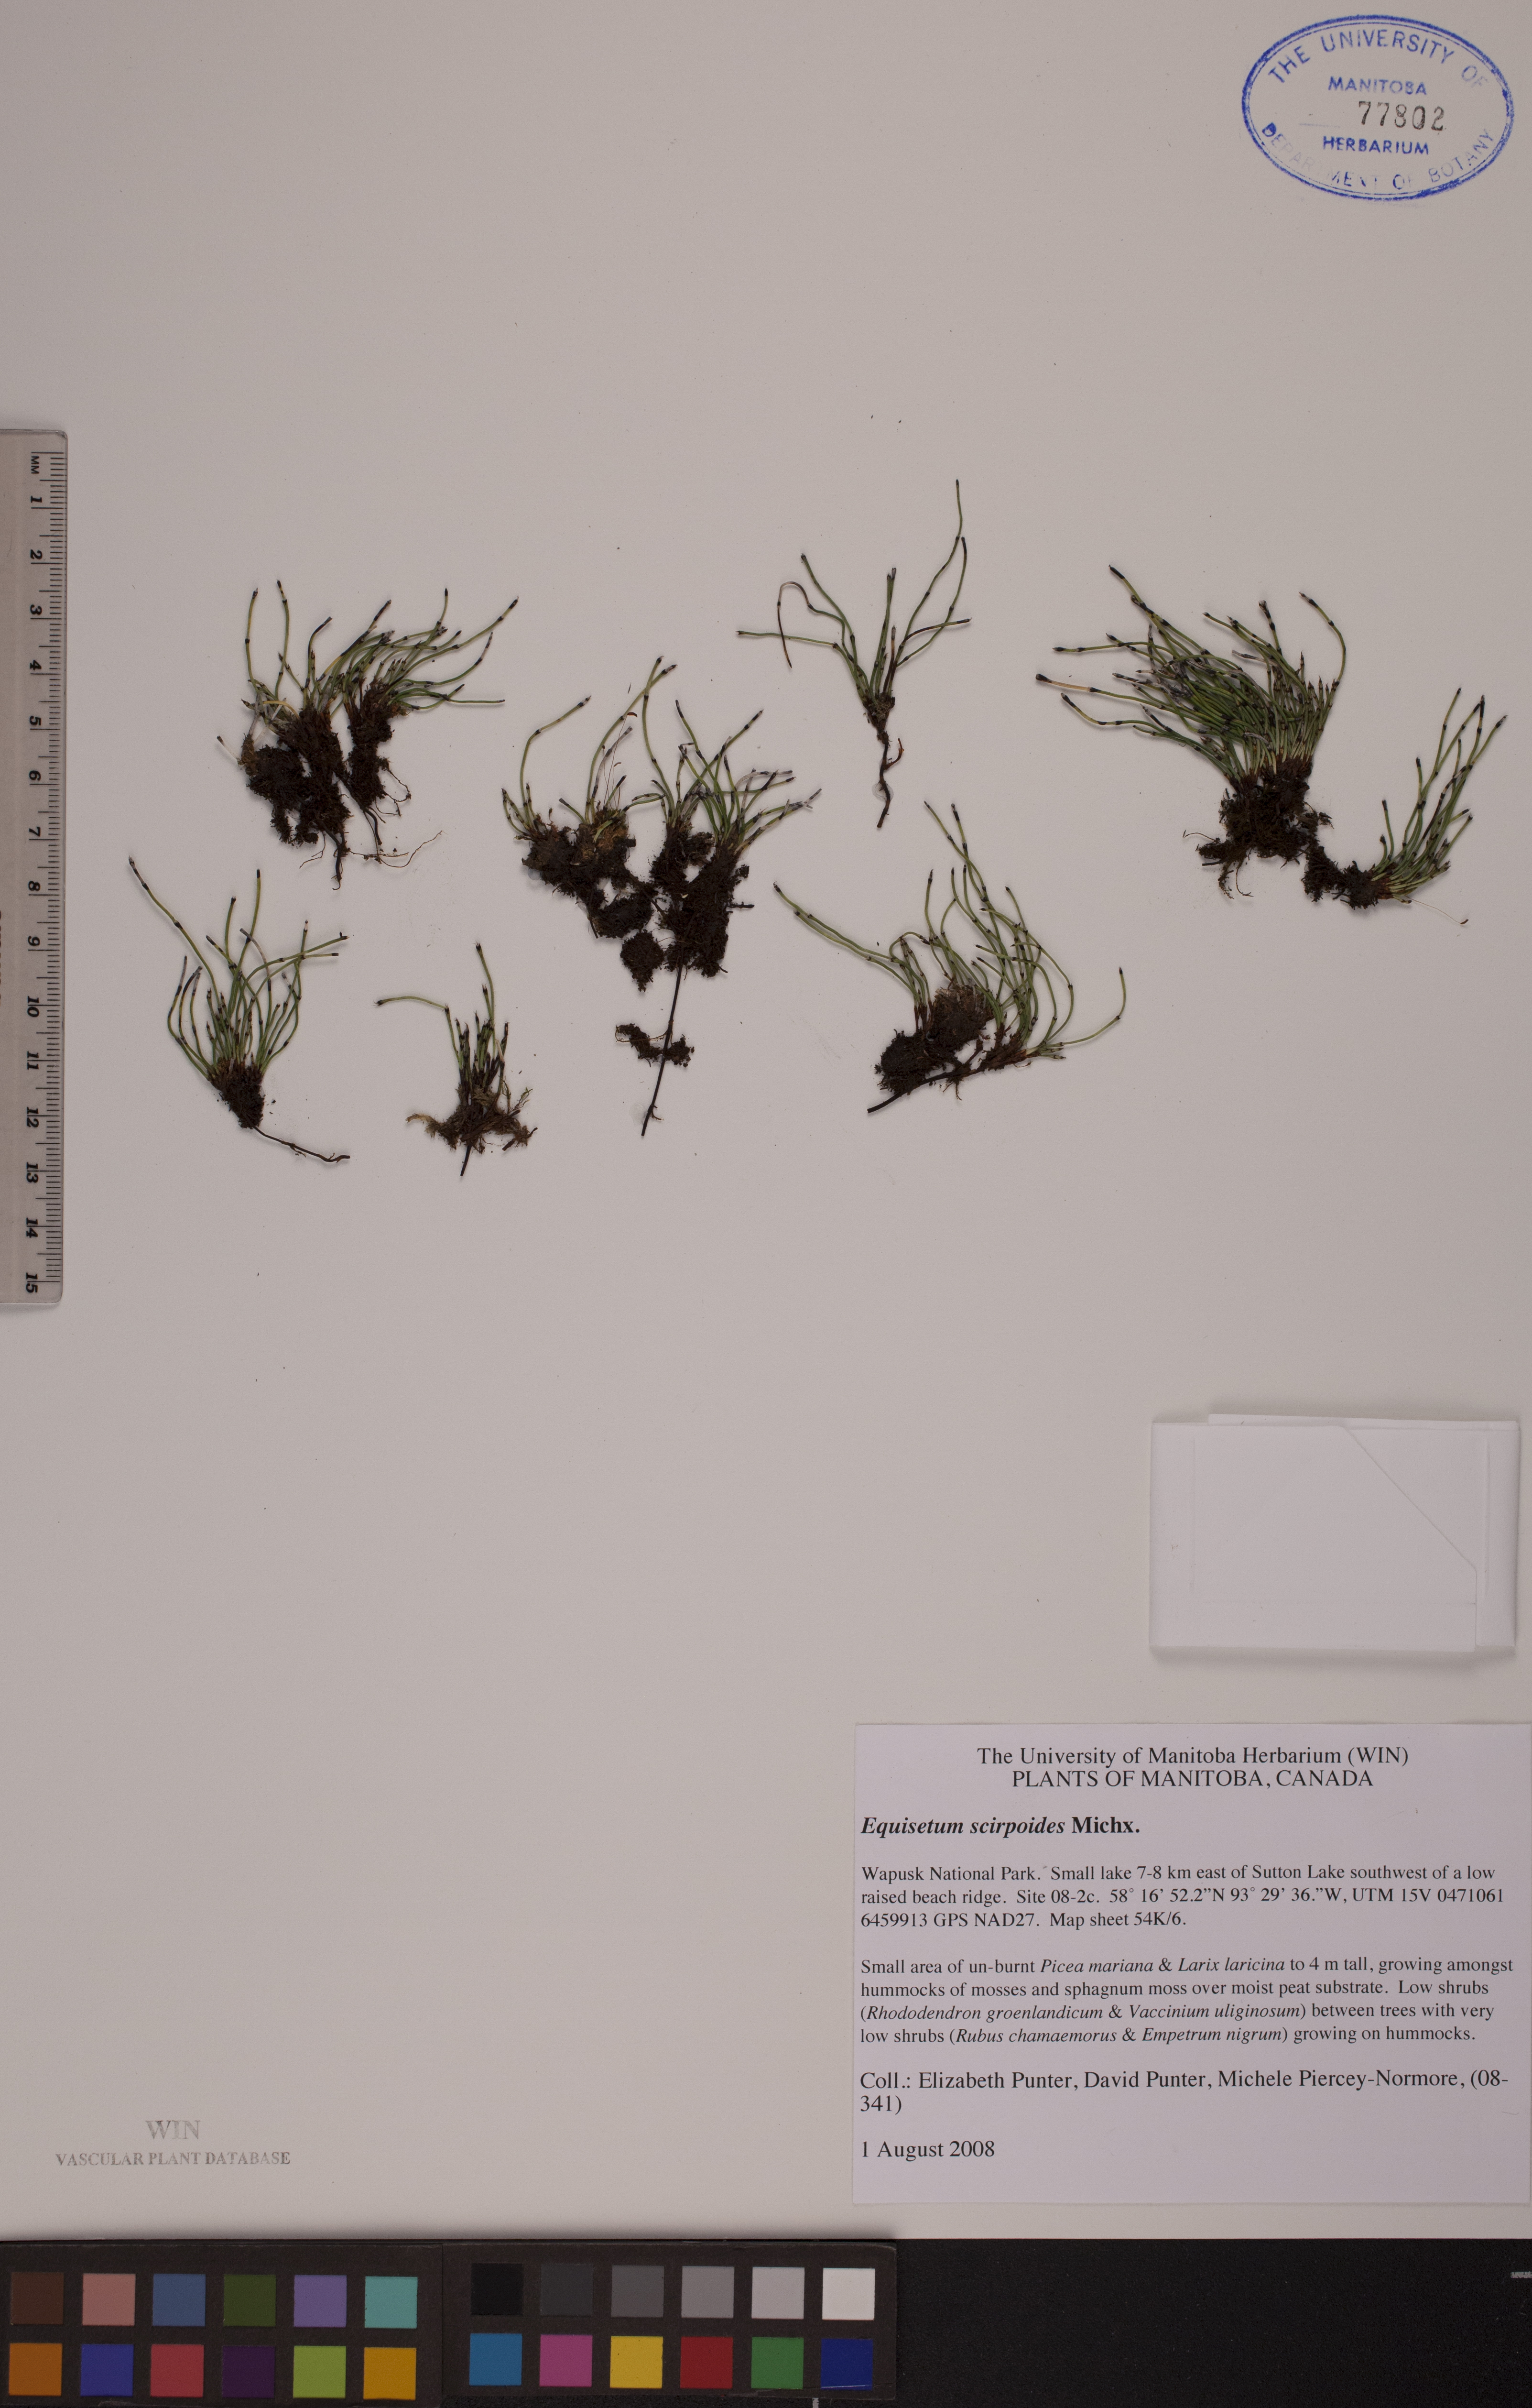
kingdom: Plantae
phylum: Tracheophyta
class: Polypodiopsida
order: Equisetales
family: Equisetaceae
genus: Equisetum
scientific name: Equisetum scirpoides
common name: Delicate horsetail
